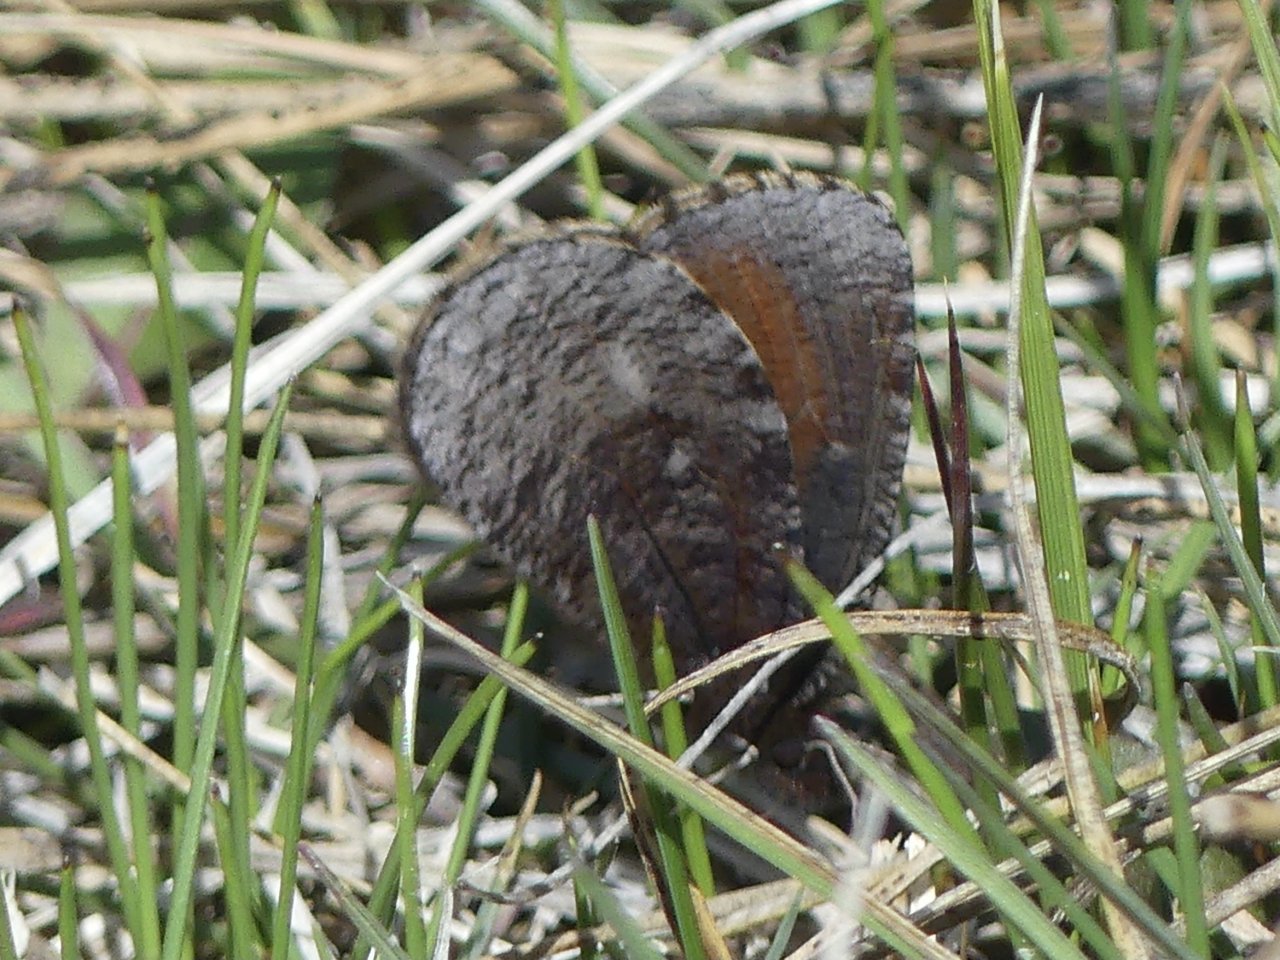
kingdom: Animalia
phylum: Arthropoda
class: Insecta
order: Lepidoptera
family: Nymphalidae
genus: Erebia
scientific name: Erebia discoidalis
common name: Red-disked Alpine
